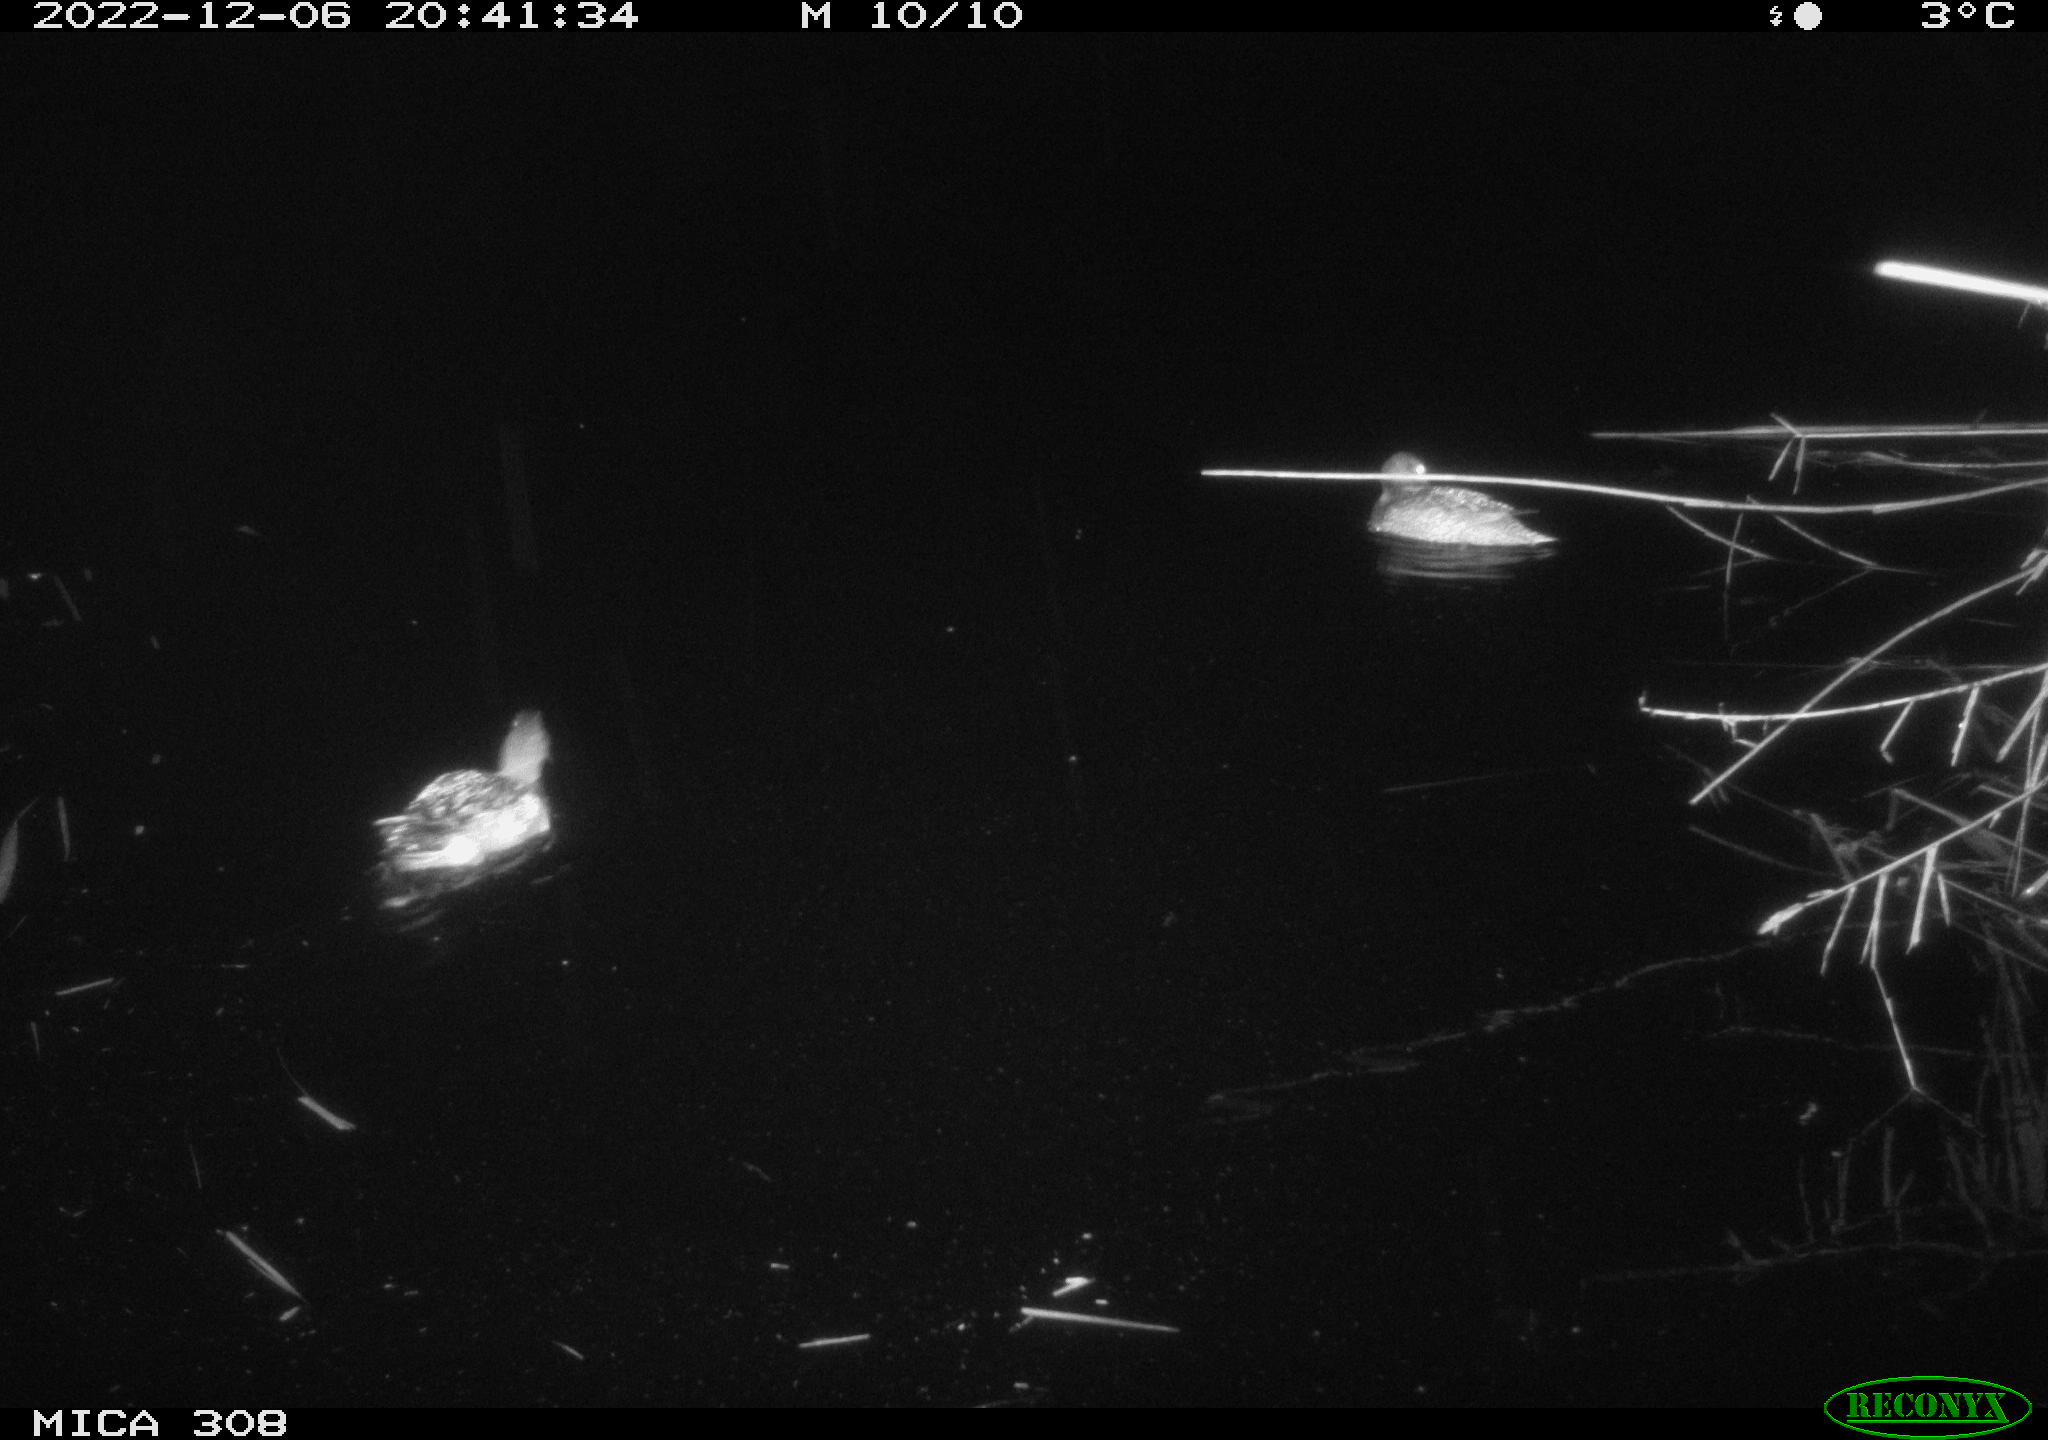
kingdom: Animalia
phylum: Chordata
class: Aves
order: Anseriformes
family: Anatidae
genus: Anas
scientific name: Anas
